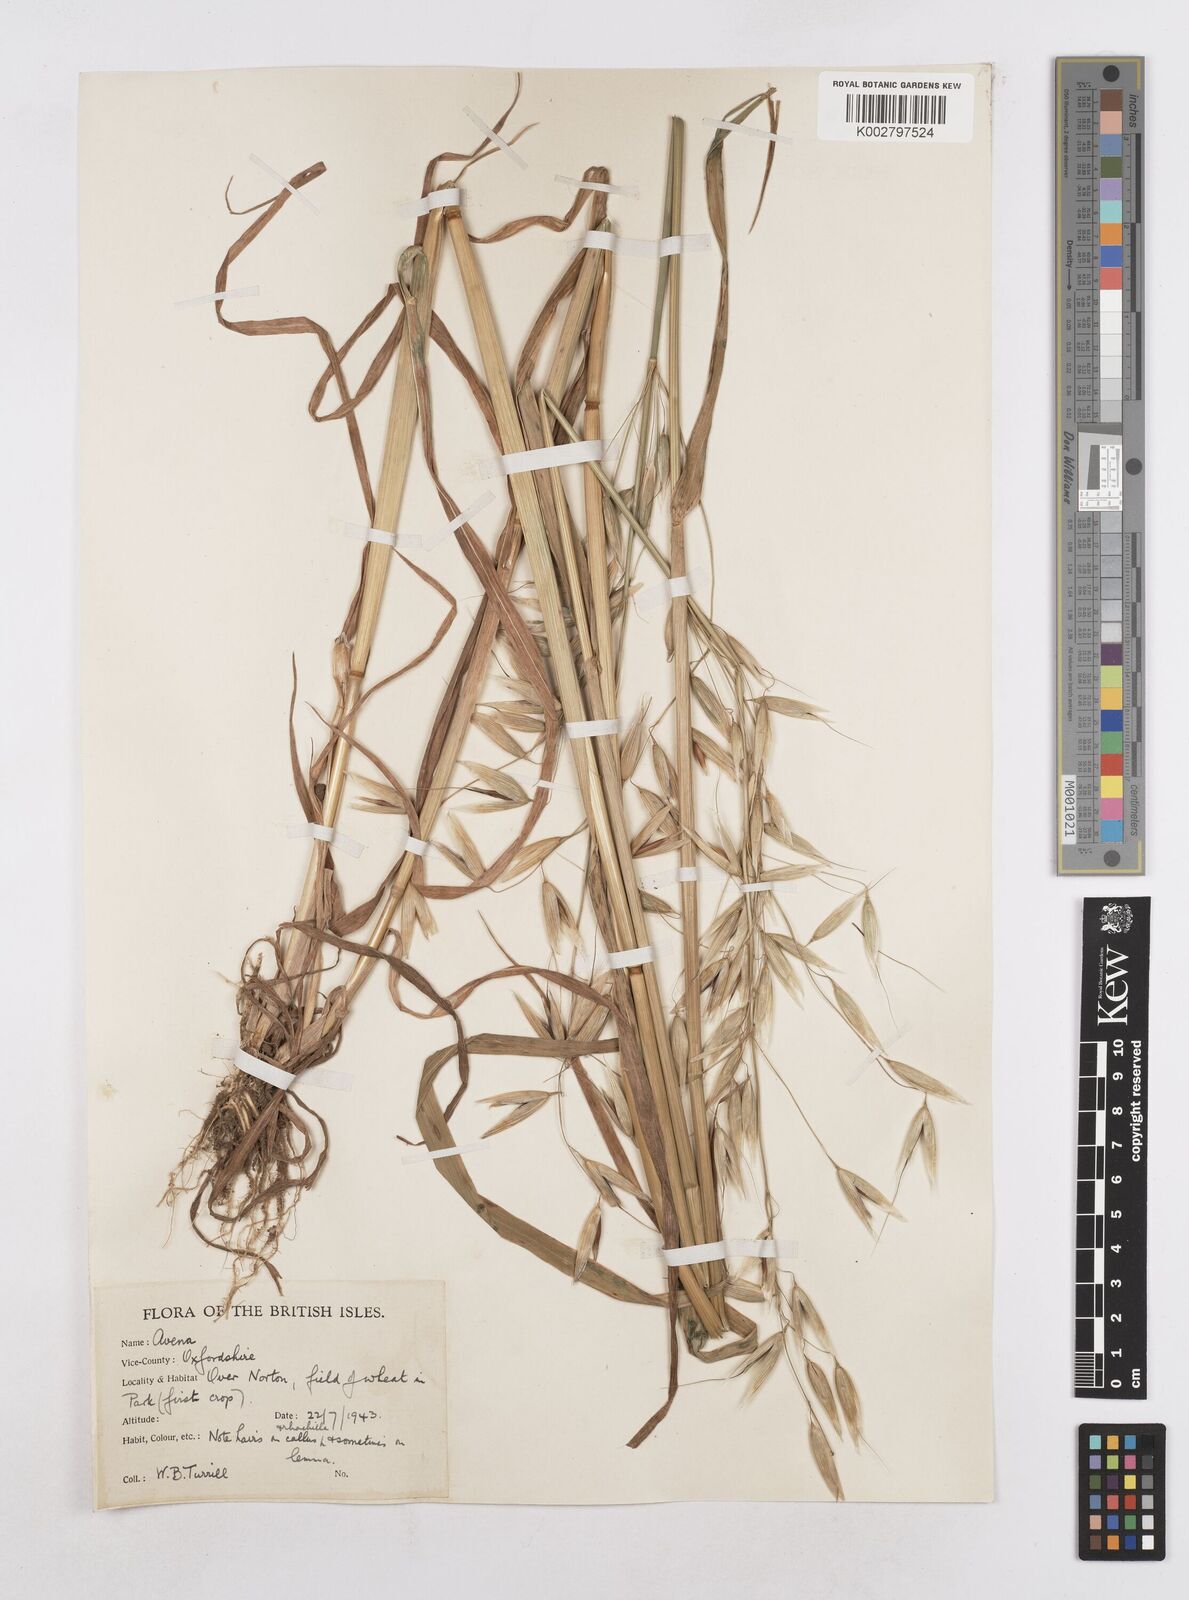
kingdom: Plantae
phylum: Tracheophyta
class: Liliopsida
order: Poales
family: Poaceae
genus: Avena
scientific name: Avena fatua
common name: Wild oat
